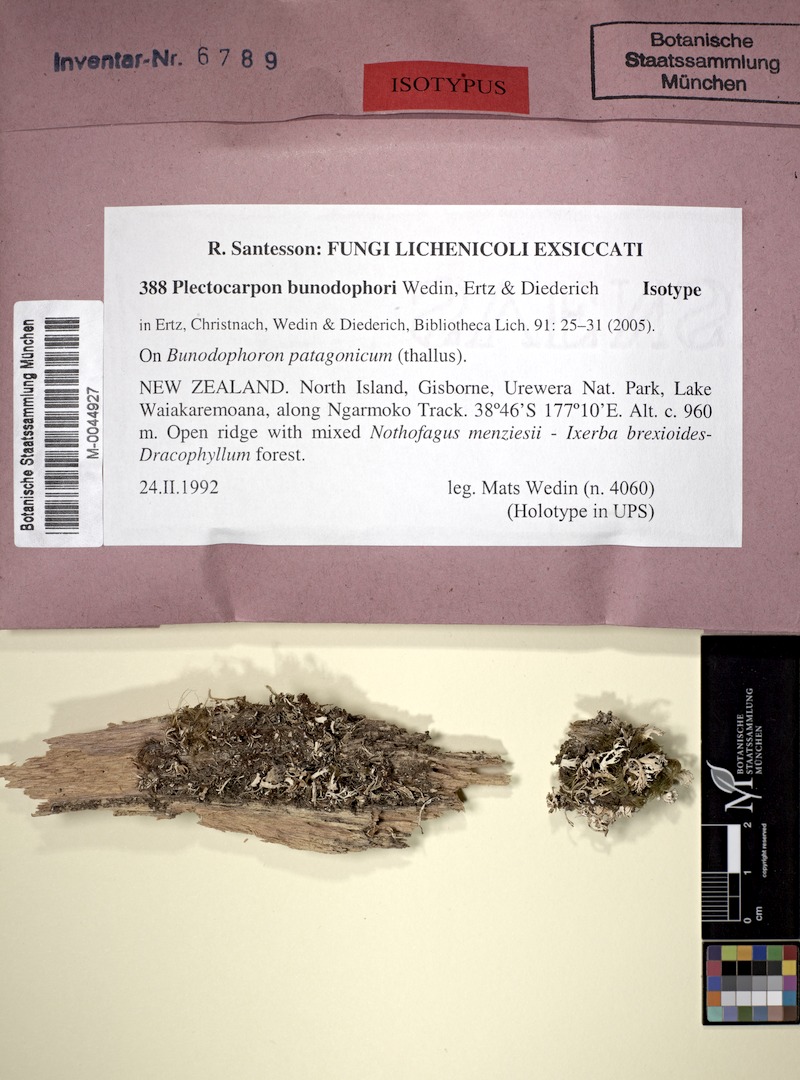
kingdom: Fungi
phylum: Ascomycota
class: Arthoniomycetes
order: Arthoniales
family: Lecanographaceae
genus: Plectocarpon
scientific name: Plectocarpon bunodophori
